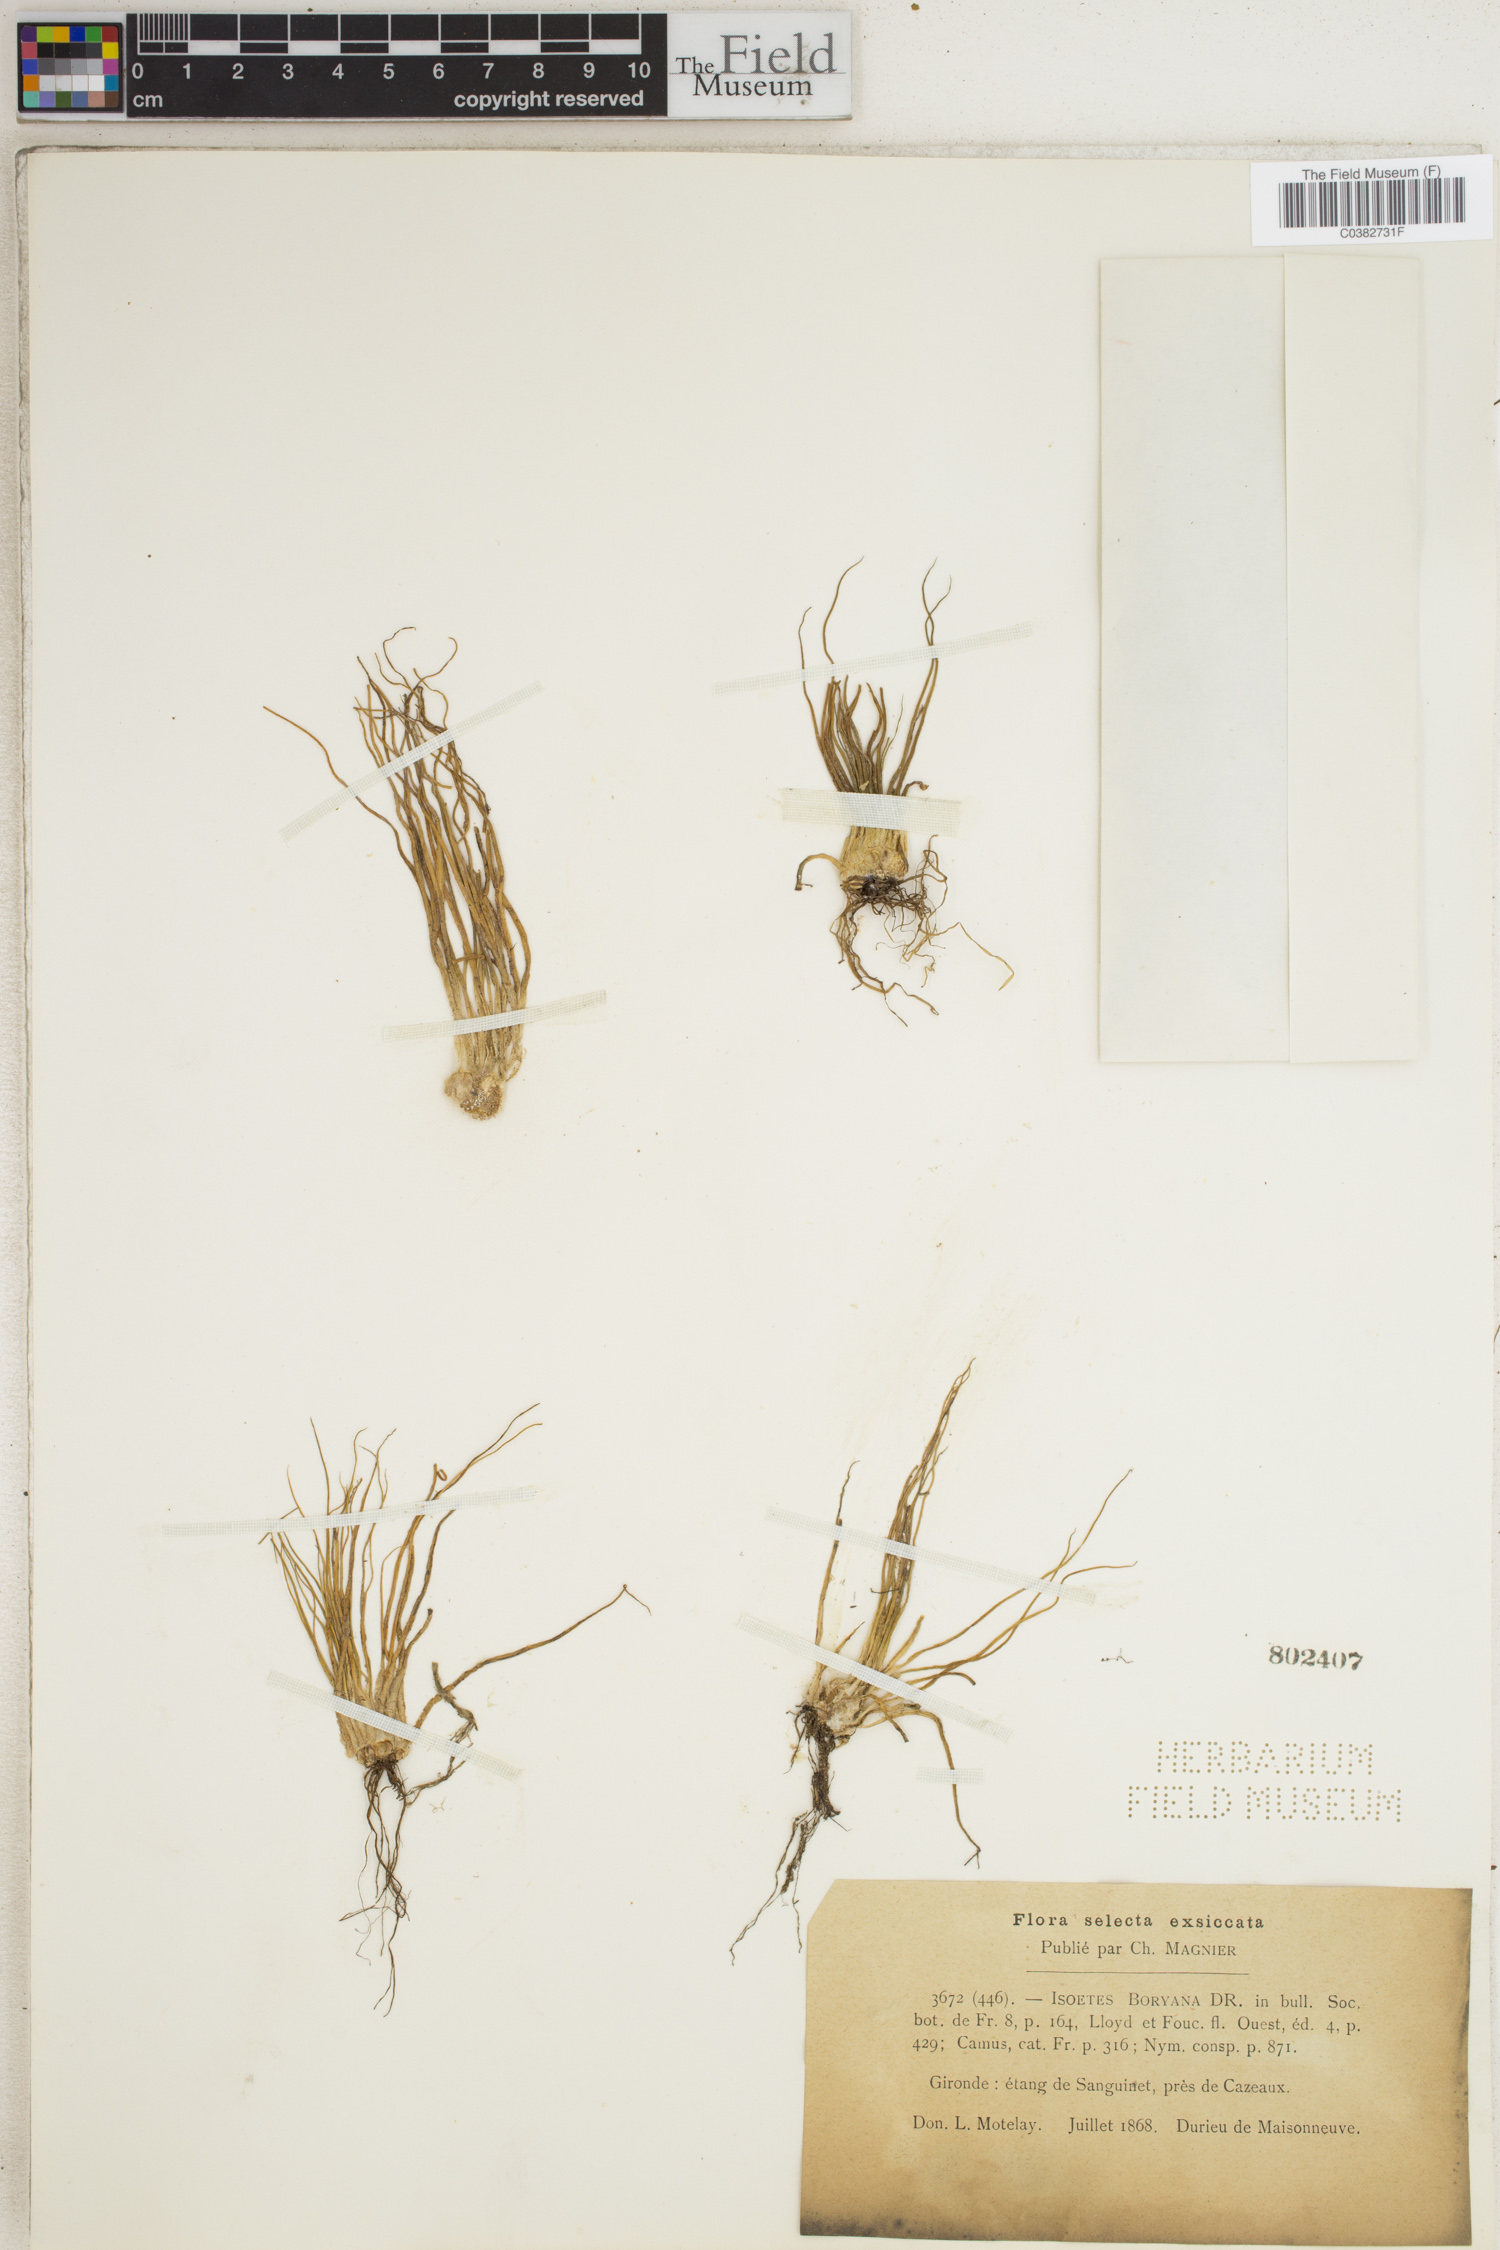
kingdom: Plantae
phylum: Tracheophyta
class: Lycopodiopsida
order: Isoetales
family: Isoetaceae
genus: Isoetes
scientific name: Isoetes boryana
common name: Gascoyne quillwort
